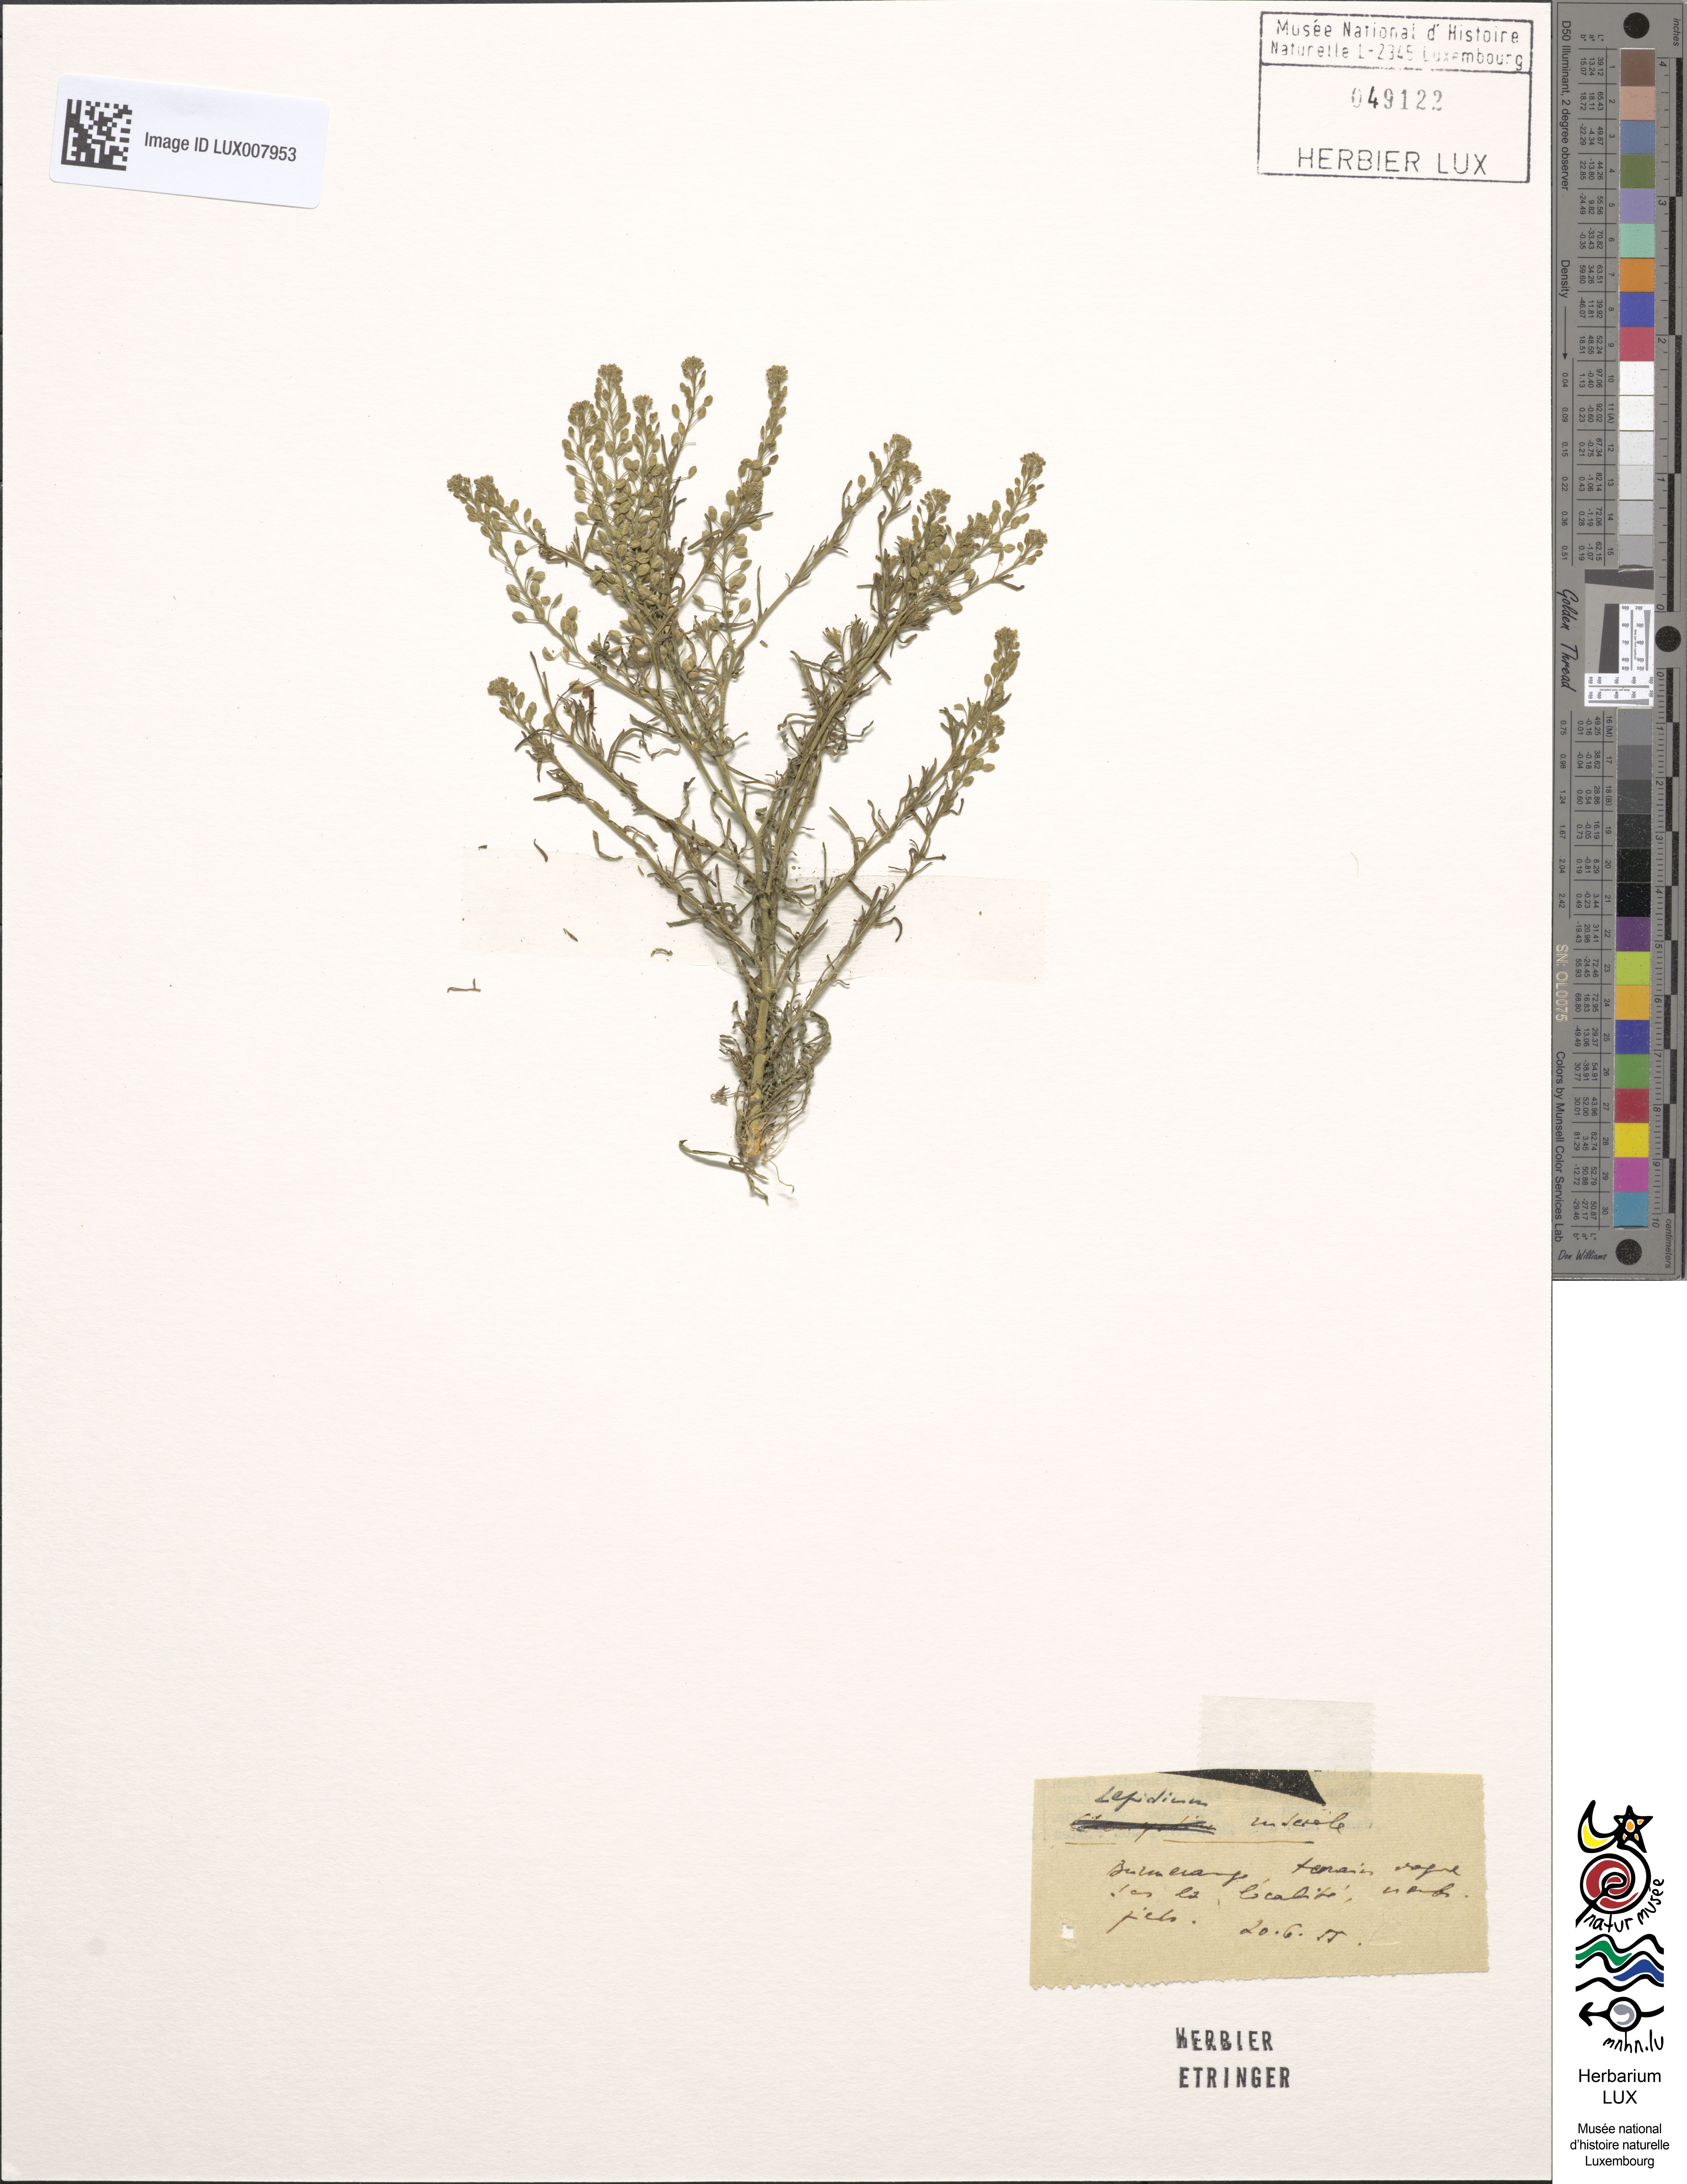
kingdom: Plantae
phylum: Tracheophyta
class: Magnoliopsida
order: Brassicales
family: Brassicaceae
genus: Lepidium
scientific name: Lepidium ruderale
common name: Narrow-leaved pepperwort
